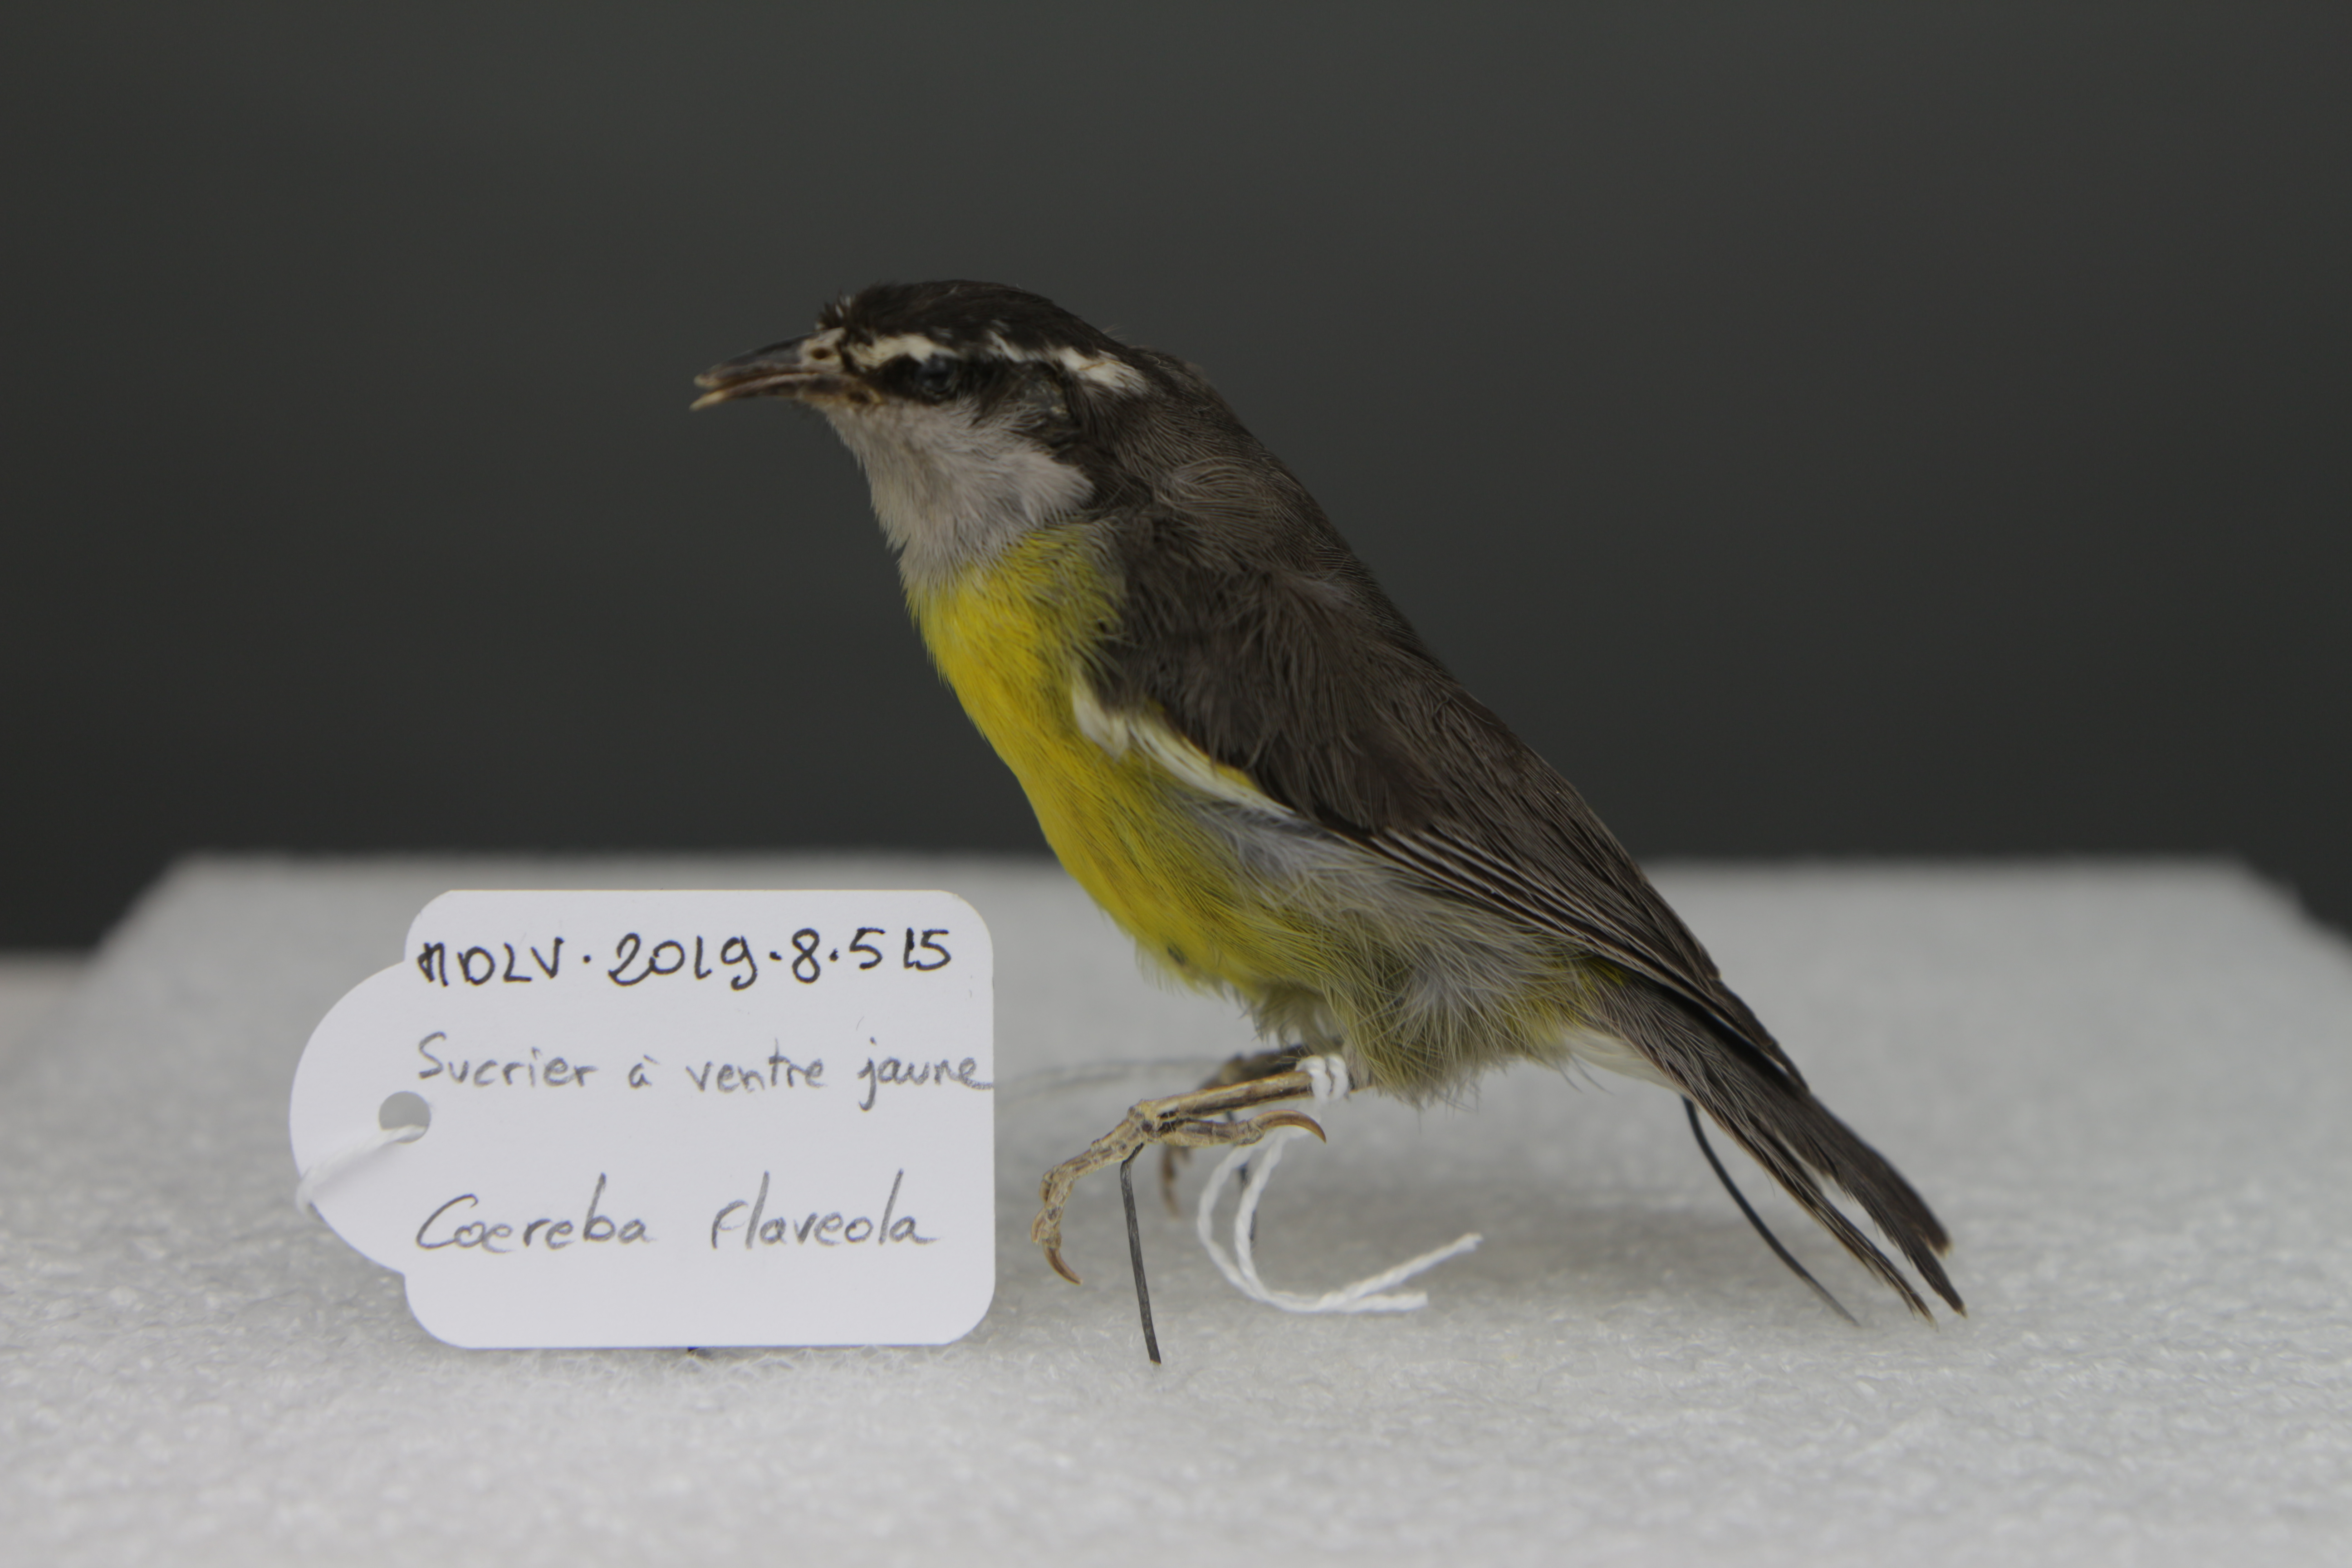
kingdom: Animalia
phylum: Chordata
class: Aves
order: Passeriformes
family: Thraupidae
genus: Coereba
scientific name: Coereba flaveola
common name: Bananaquit
